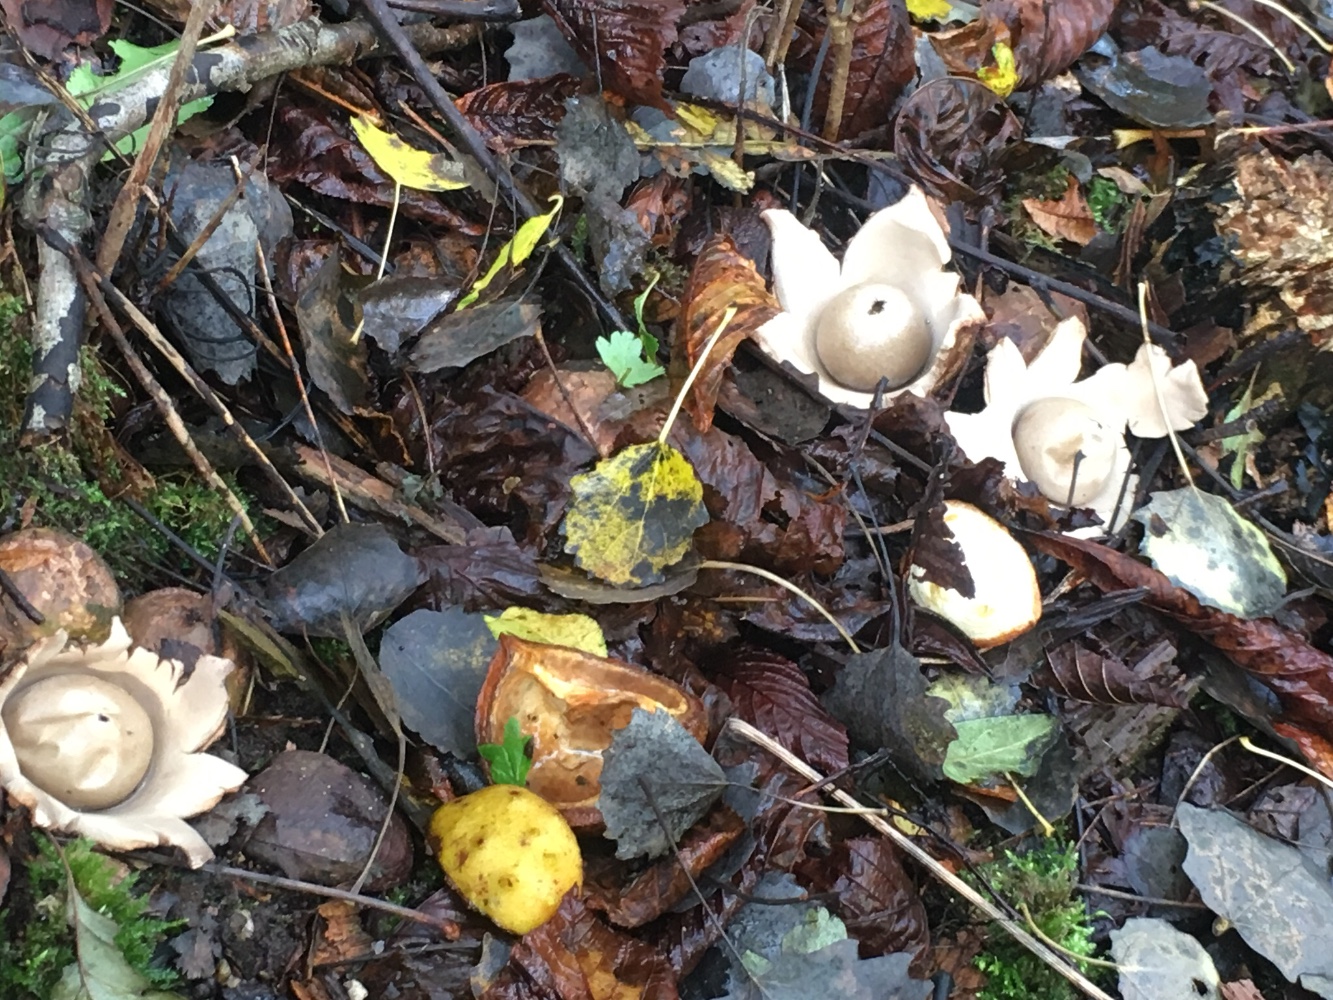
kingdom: Fungi
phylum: Basidiomycota
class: Agaricomycetes
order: Geastrales
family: Geastraceae
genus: Geastrum
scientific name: Geastrum michelianum
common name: kødet stjernebold
